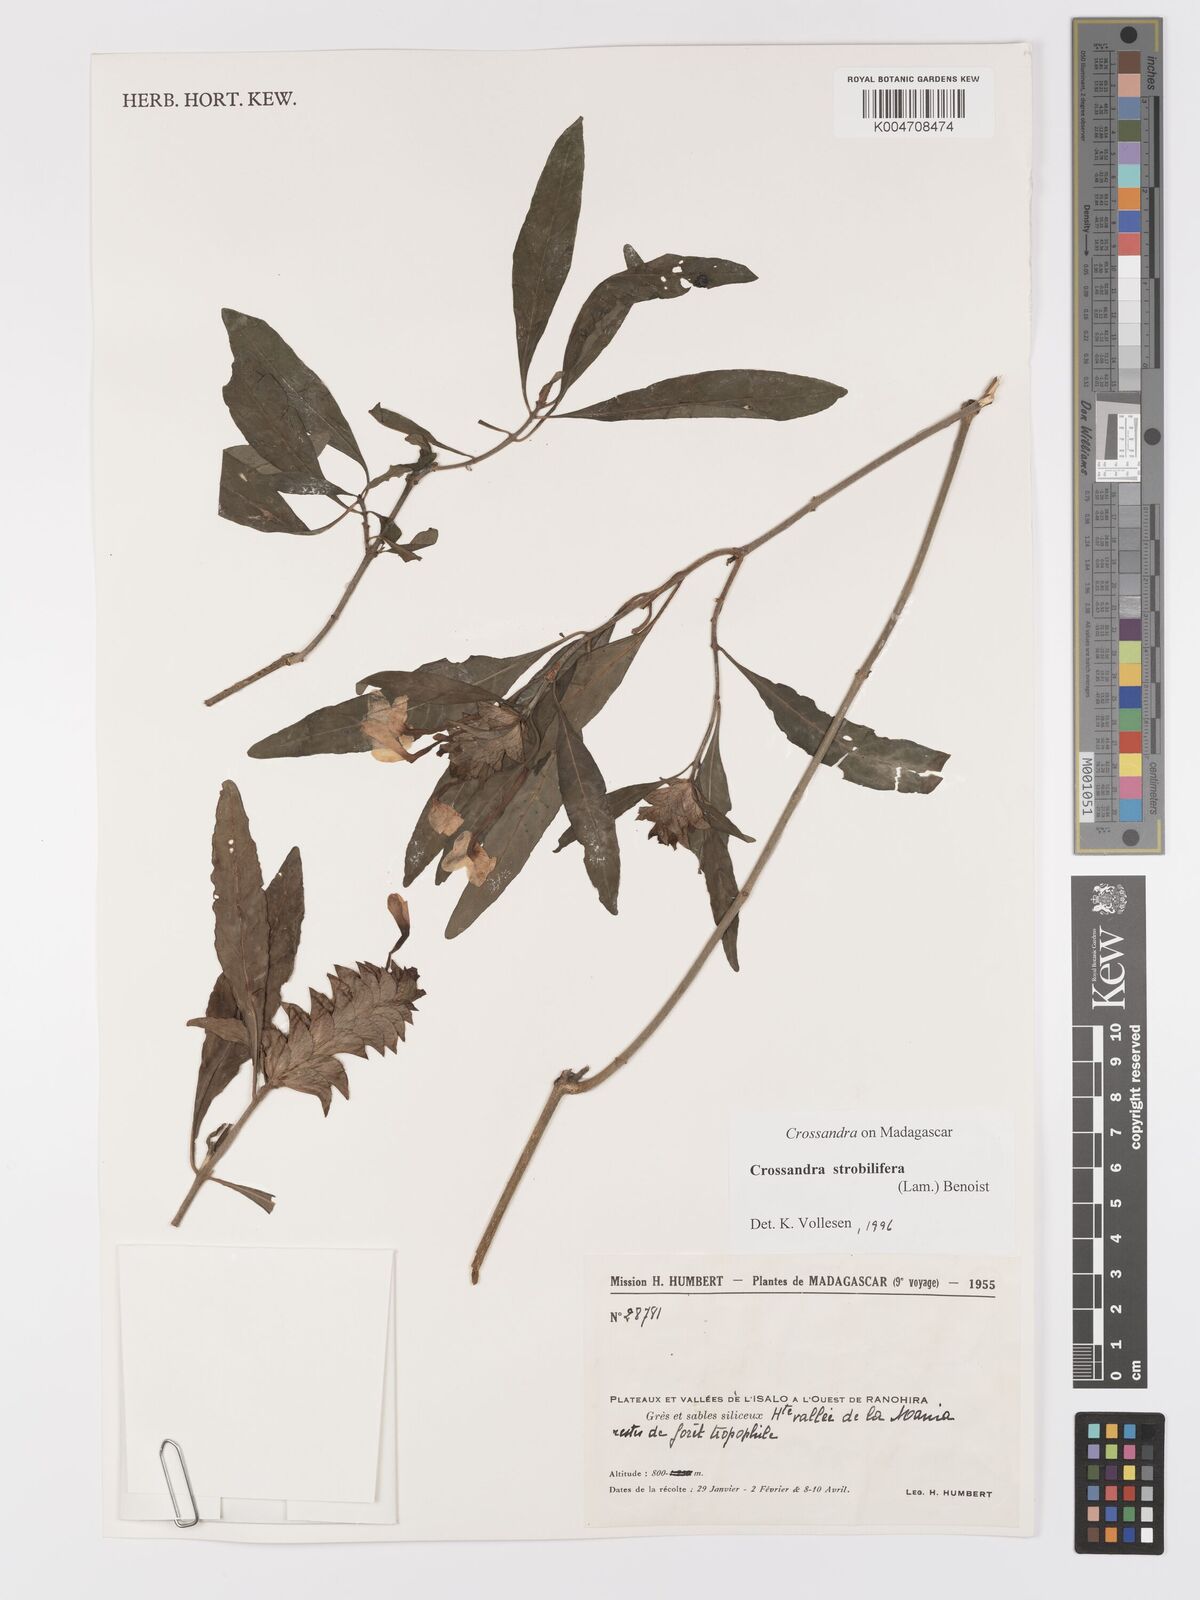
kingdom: Plantae
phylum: Tracheophyta
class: Magnoliopsida
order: Lamiales
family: Acanthaceae
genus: Crossandra
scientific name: Crossandra strobilifera
